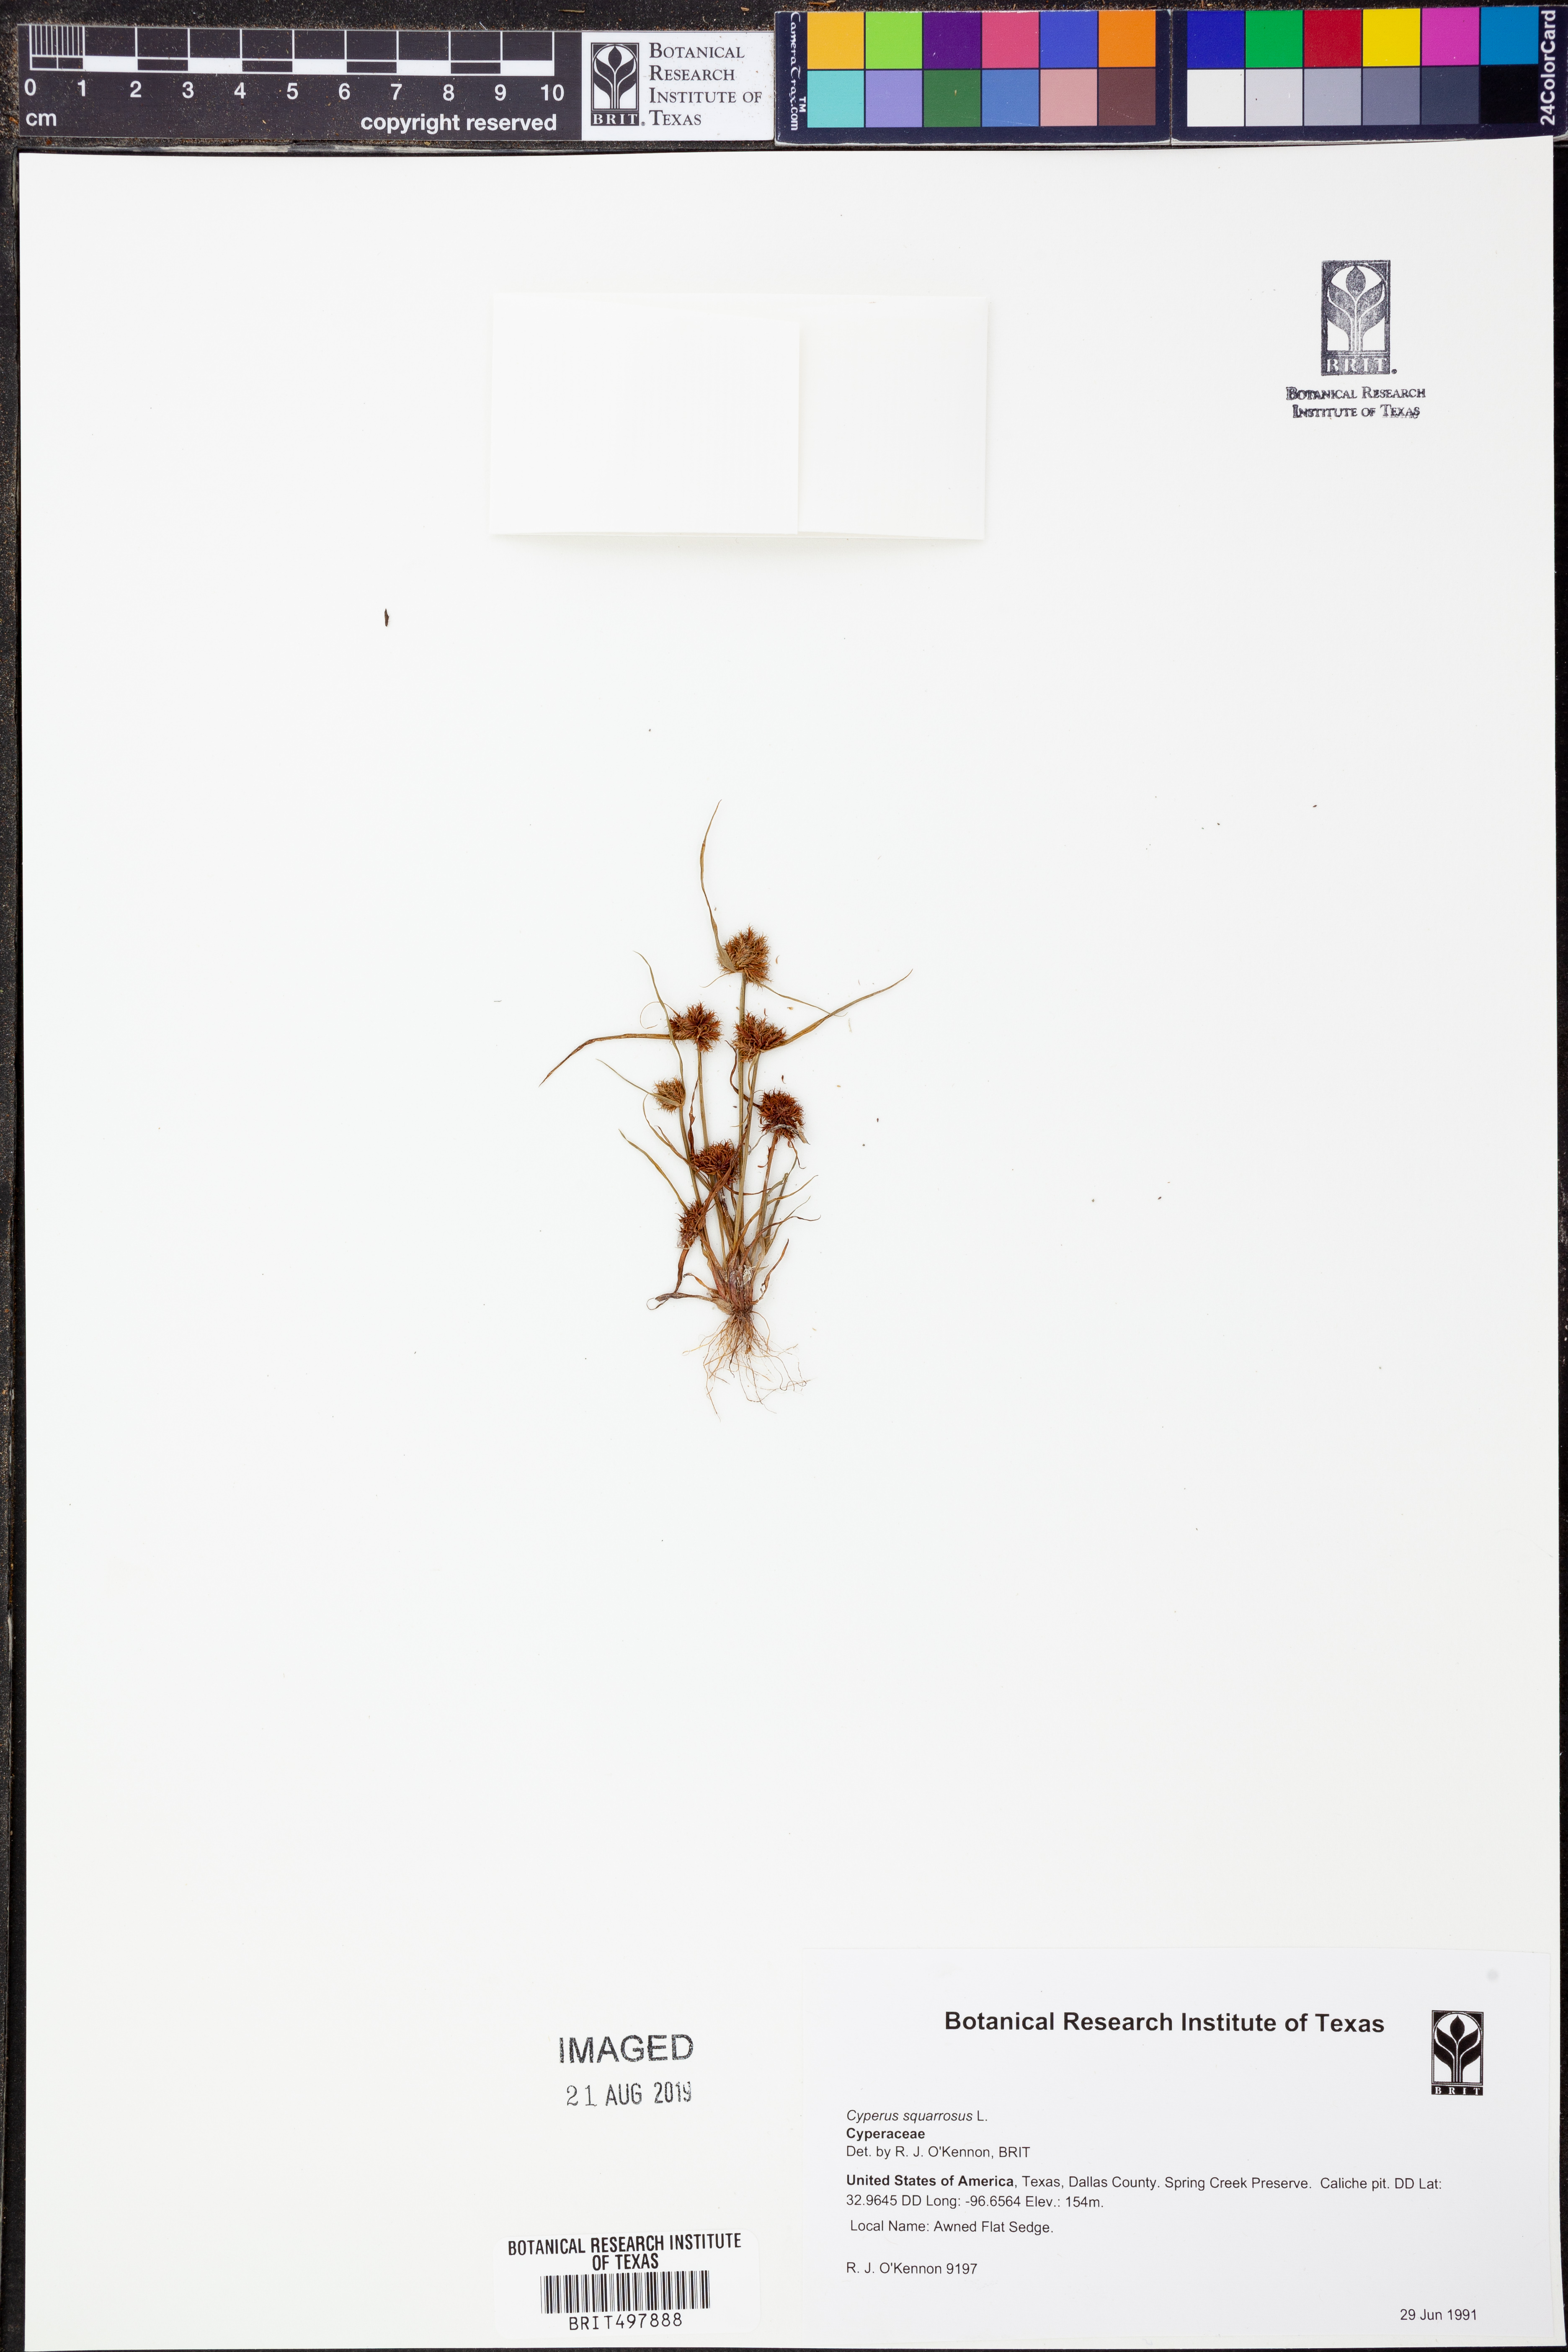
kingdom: Plantae
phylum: Tracheophyta
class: Liliopsida
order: Poales
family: Cyperaceae
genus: Cyperus
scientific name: Cyperus squarrosus
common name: Awned cyperus
